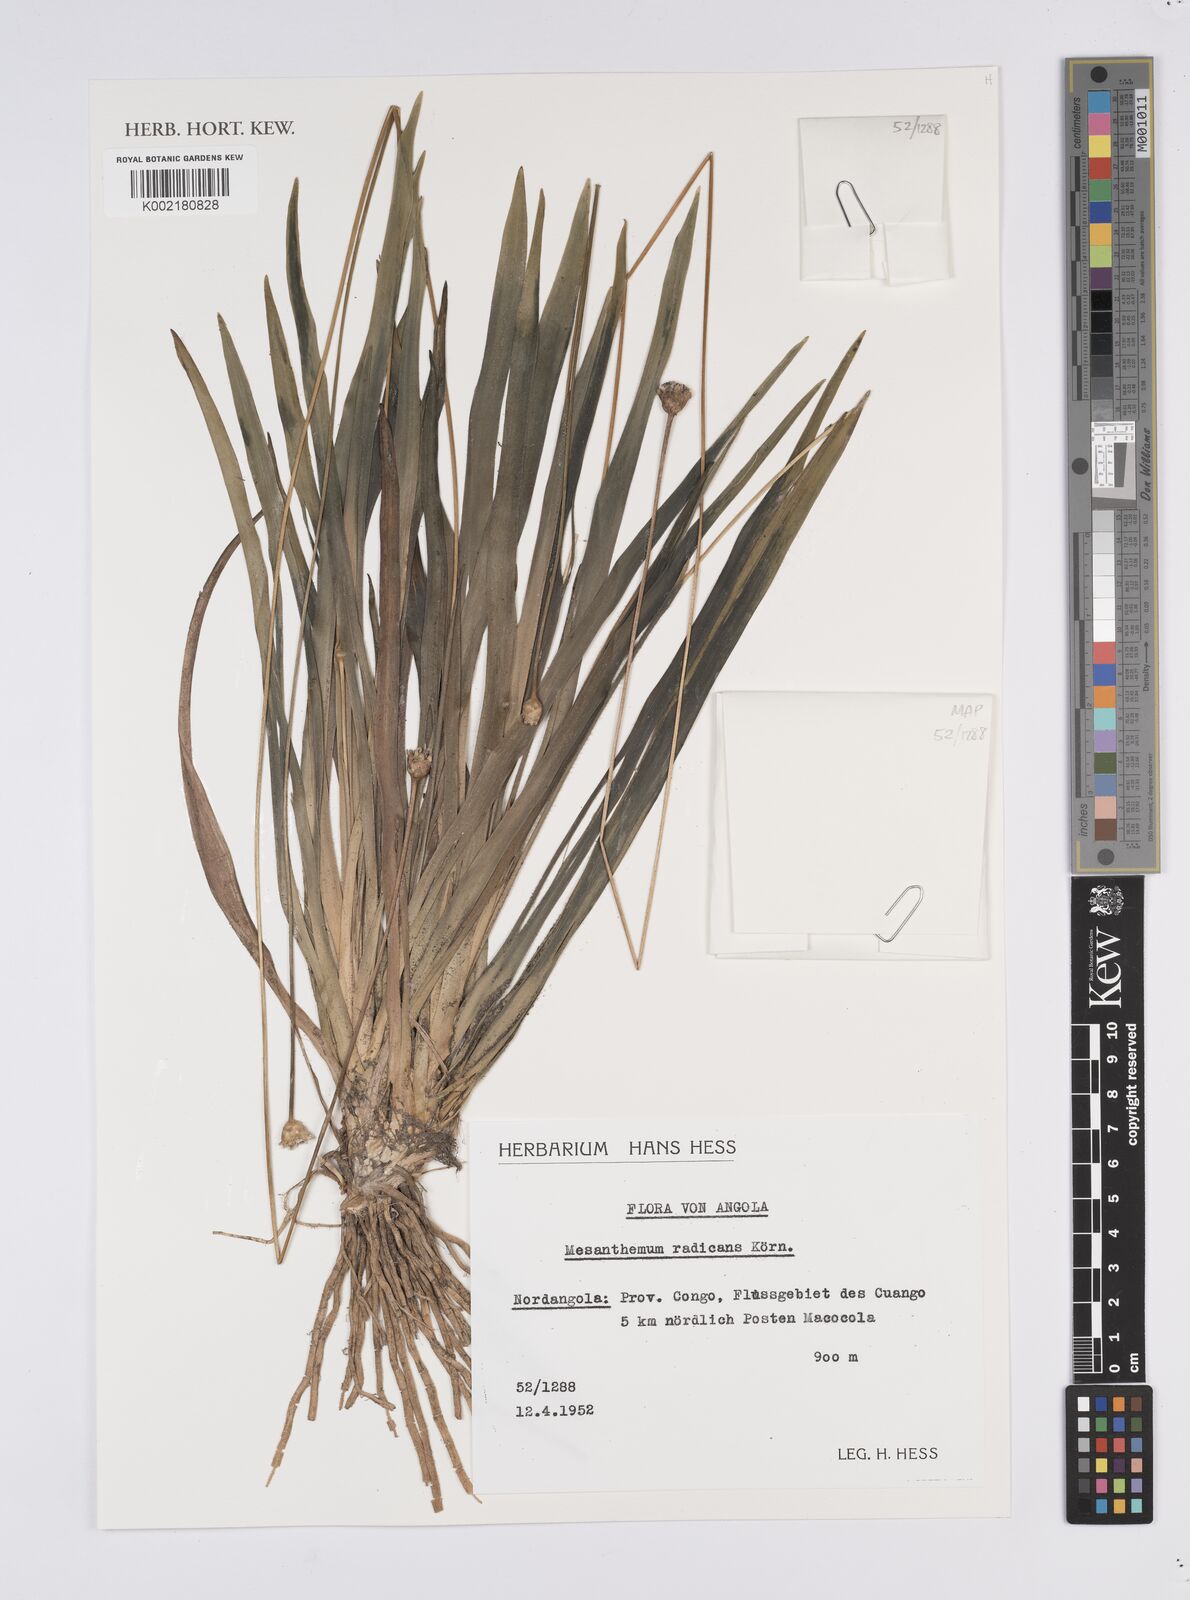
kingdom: Plantae
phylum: Tracheophyta
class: Liliopsida
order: Poales
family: Eriocaulaceae
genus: Mesanthemum
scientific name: Mesanthemum radicans
